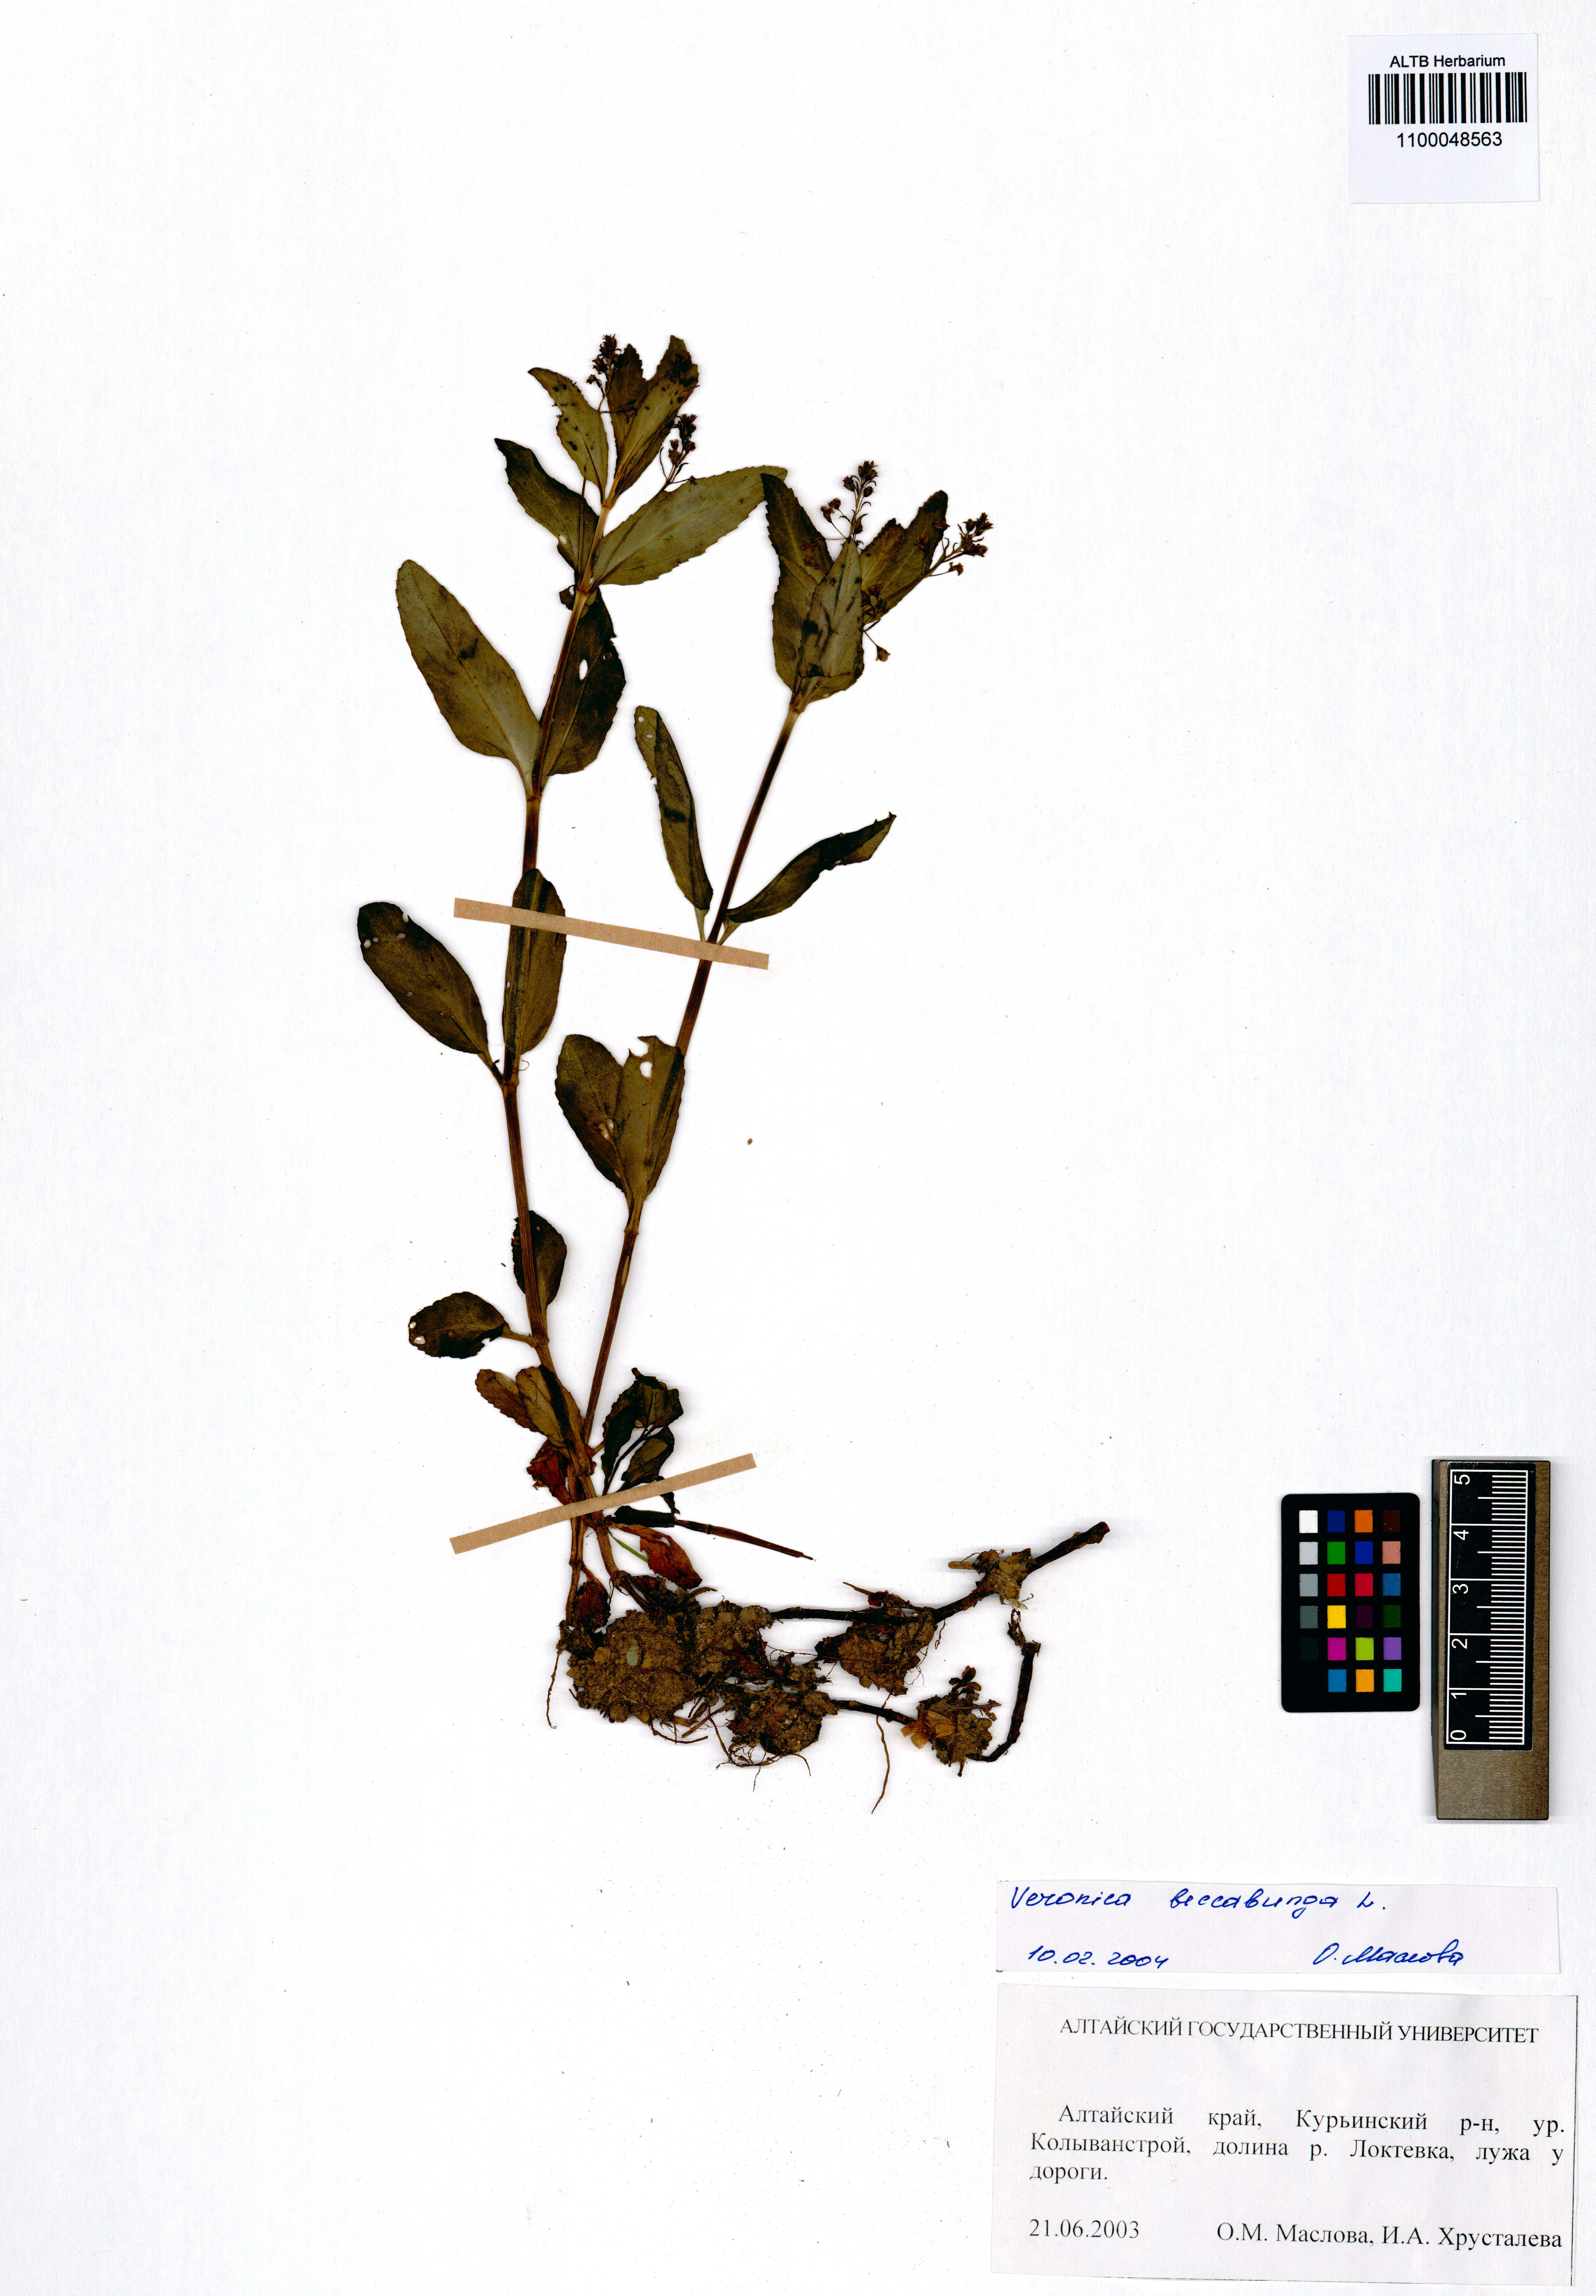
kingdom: Plantae
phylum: Tracheophyta
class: Magnoliopsida
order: Lamiales
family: Plantaginaceae
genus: Veronica
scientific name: Veronica beccabunga
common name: Brooklime
